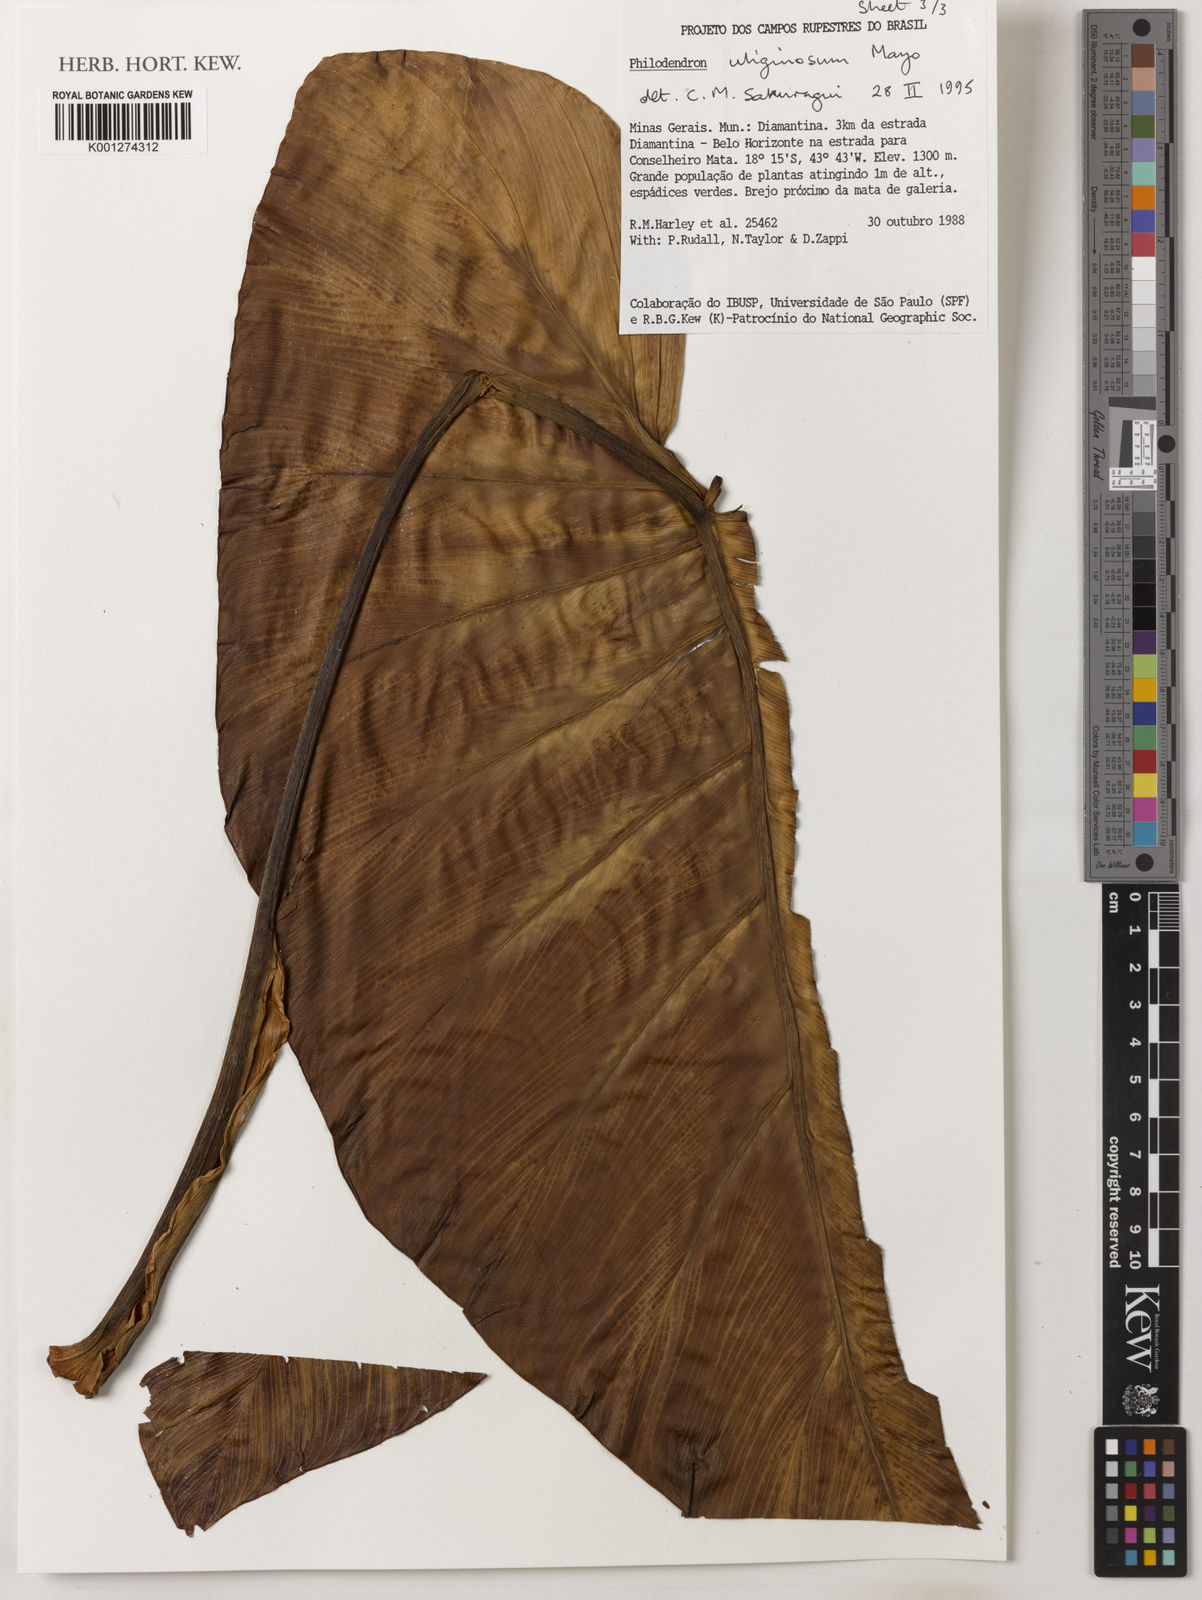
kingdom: Plantae
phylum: Tracheophyta
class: Liliopsida
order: Alismatales
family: Araceae
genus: Thaumatophyllum
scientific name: Thaumatophyllum uliginosum
